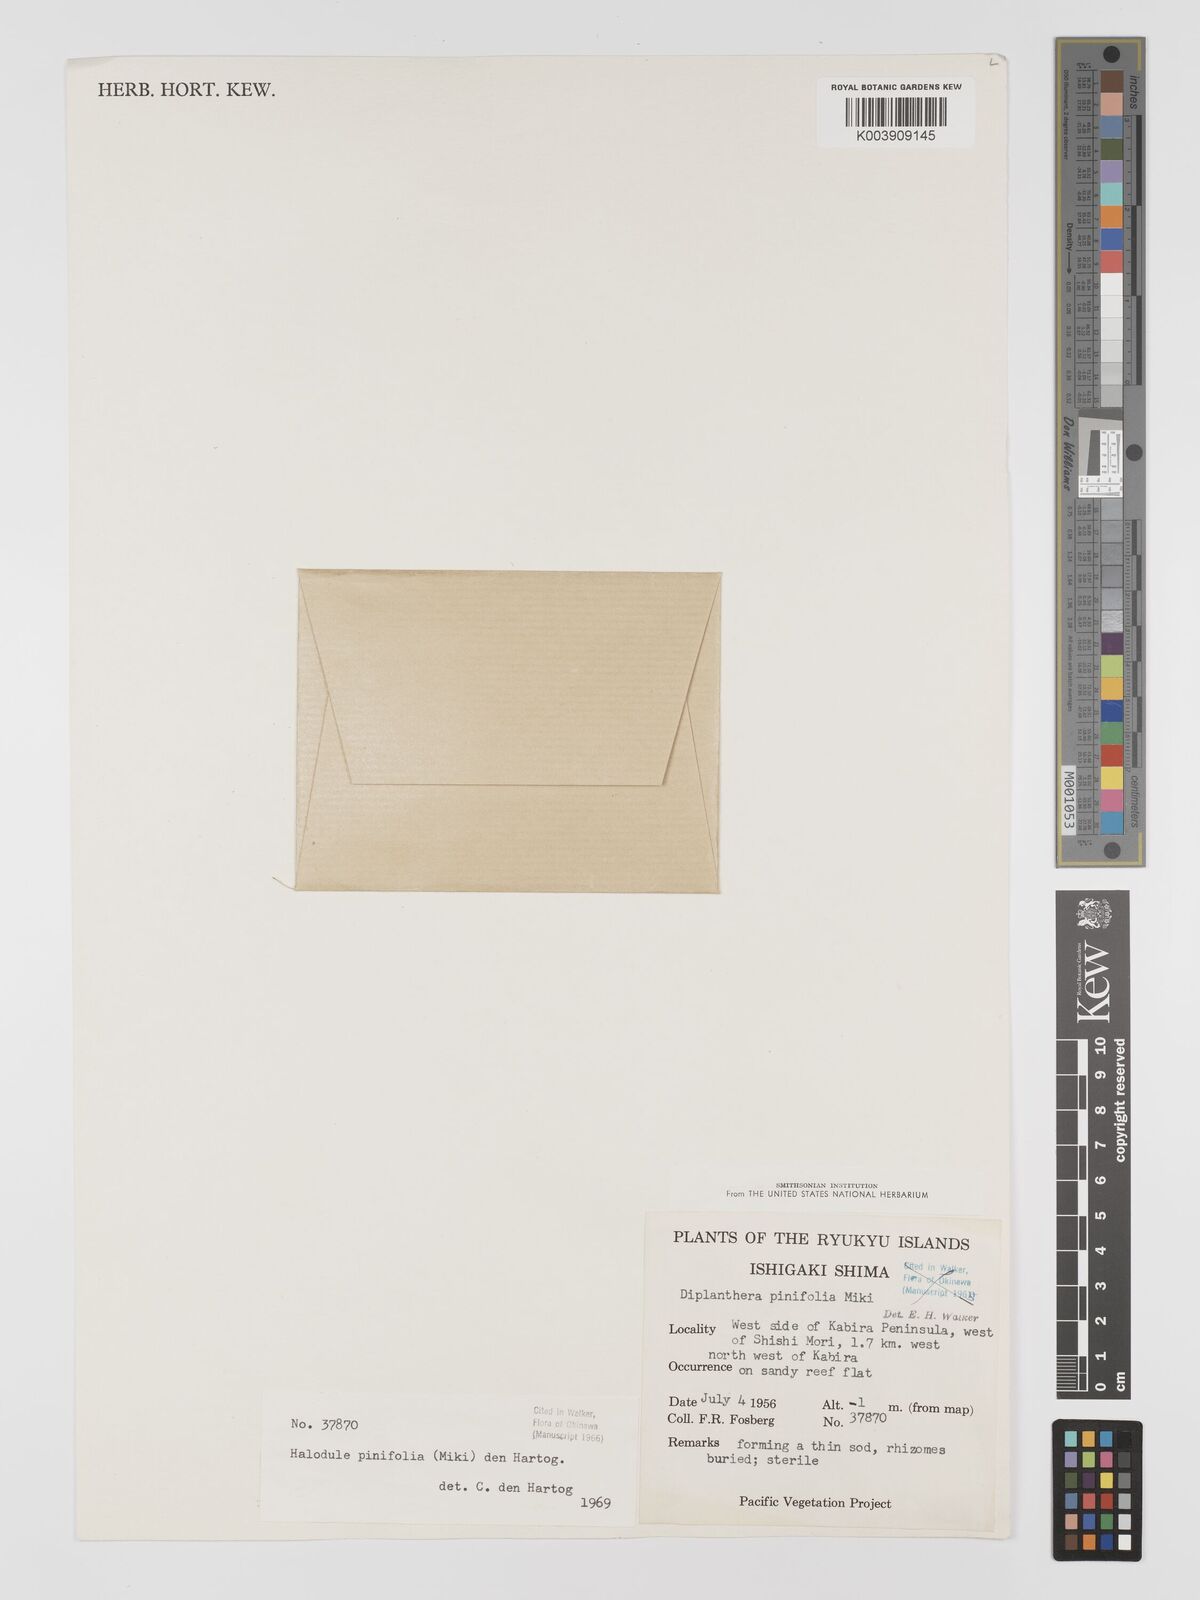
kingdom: Plantae
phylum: Tracheophyta
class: Liliopsida
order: Alismatales
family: Cymodoceaceae
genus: Halodule
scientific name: Halodule pinifolia
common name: Species code: hp
